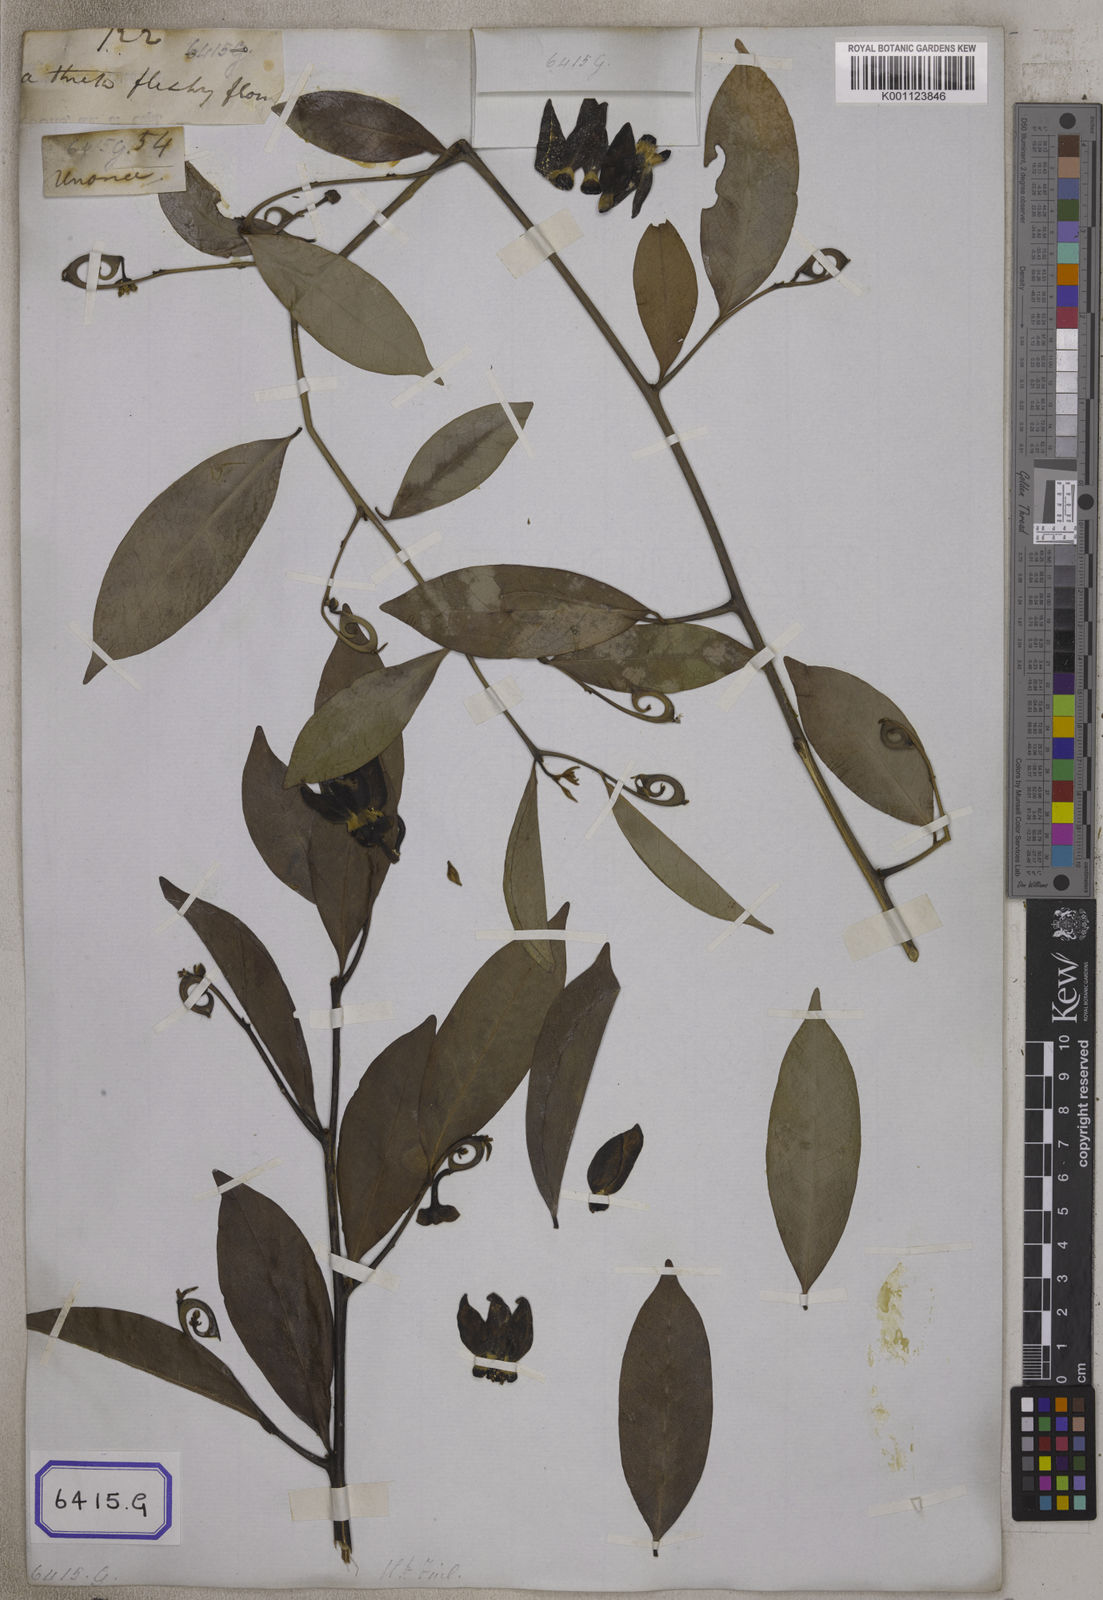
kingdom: Plantae
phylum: Tracheophyta
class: Magnoliopsida
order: Magnoliales
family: Annonaceae
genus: Artabotrys
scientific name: Artabotrys hexapetalus
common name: Climbing ilang-ilang
